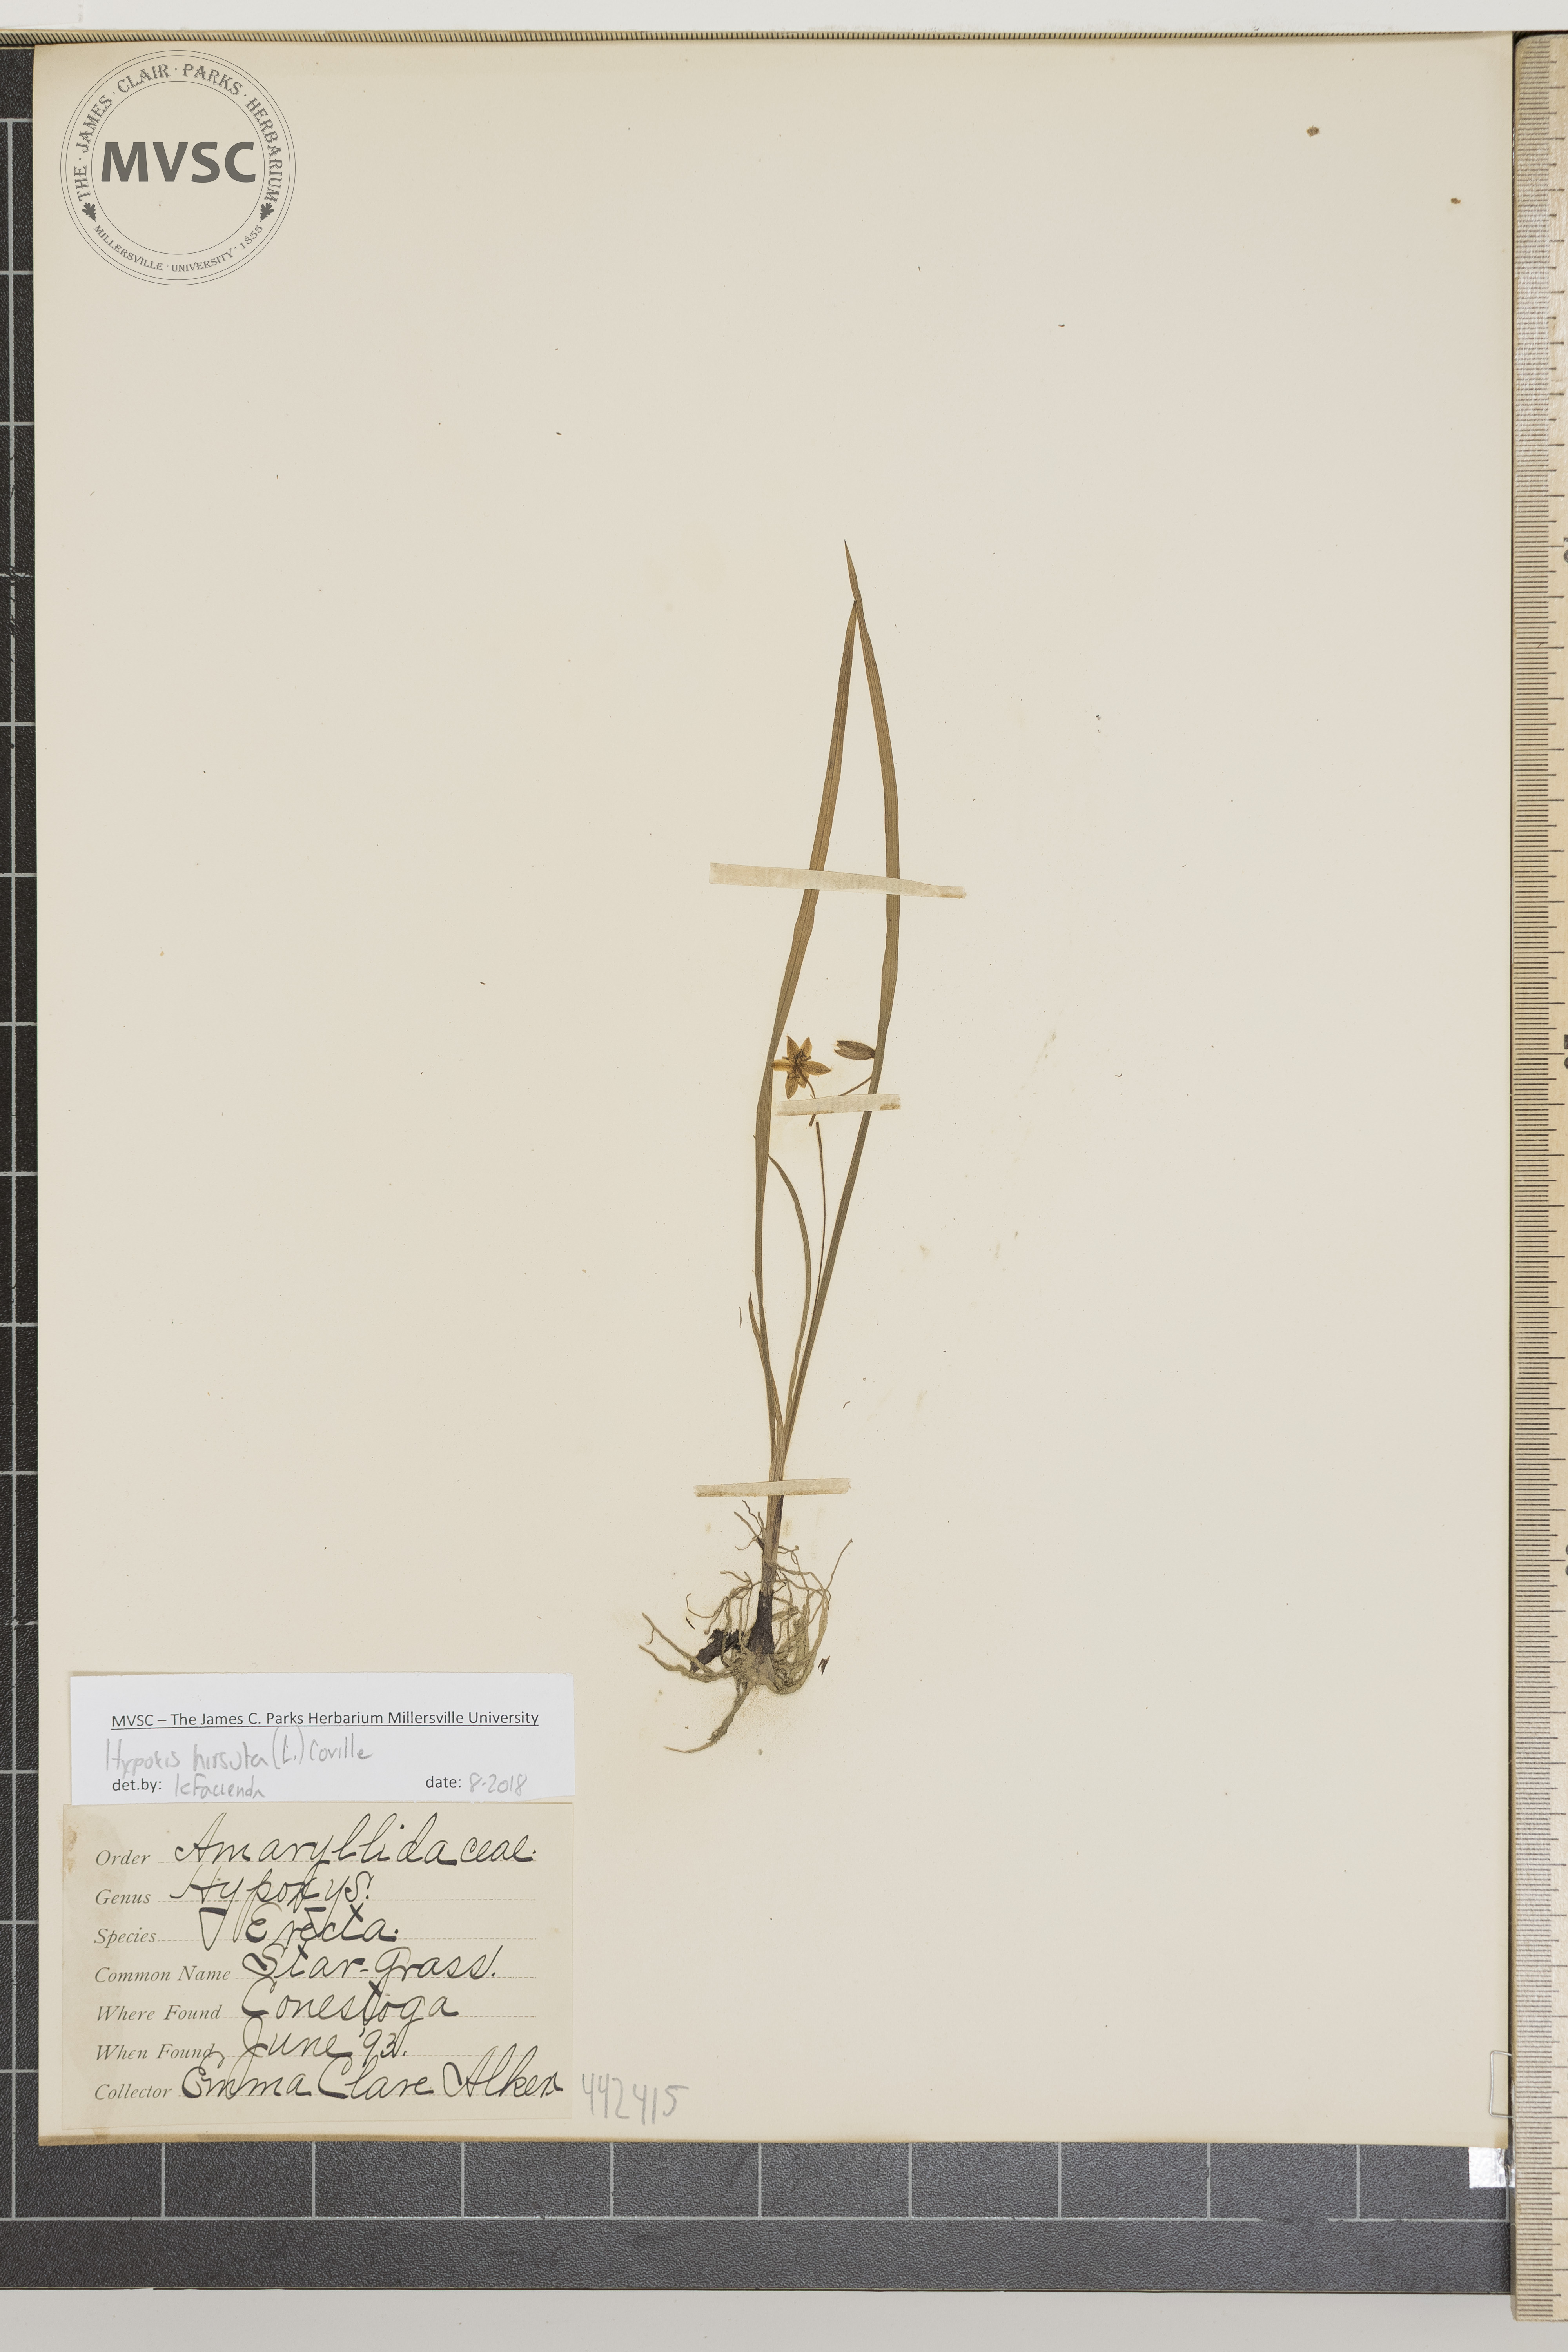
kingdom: Plantae
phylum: Tracheophyta
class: Liliopsida
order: Asparagales
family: Hypoxidaceae
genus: Hypoxis
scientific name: Hypoxis hirsuta
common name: Star-grass
